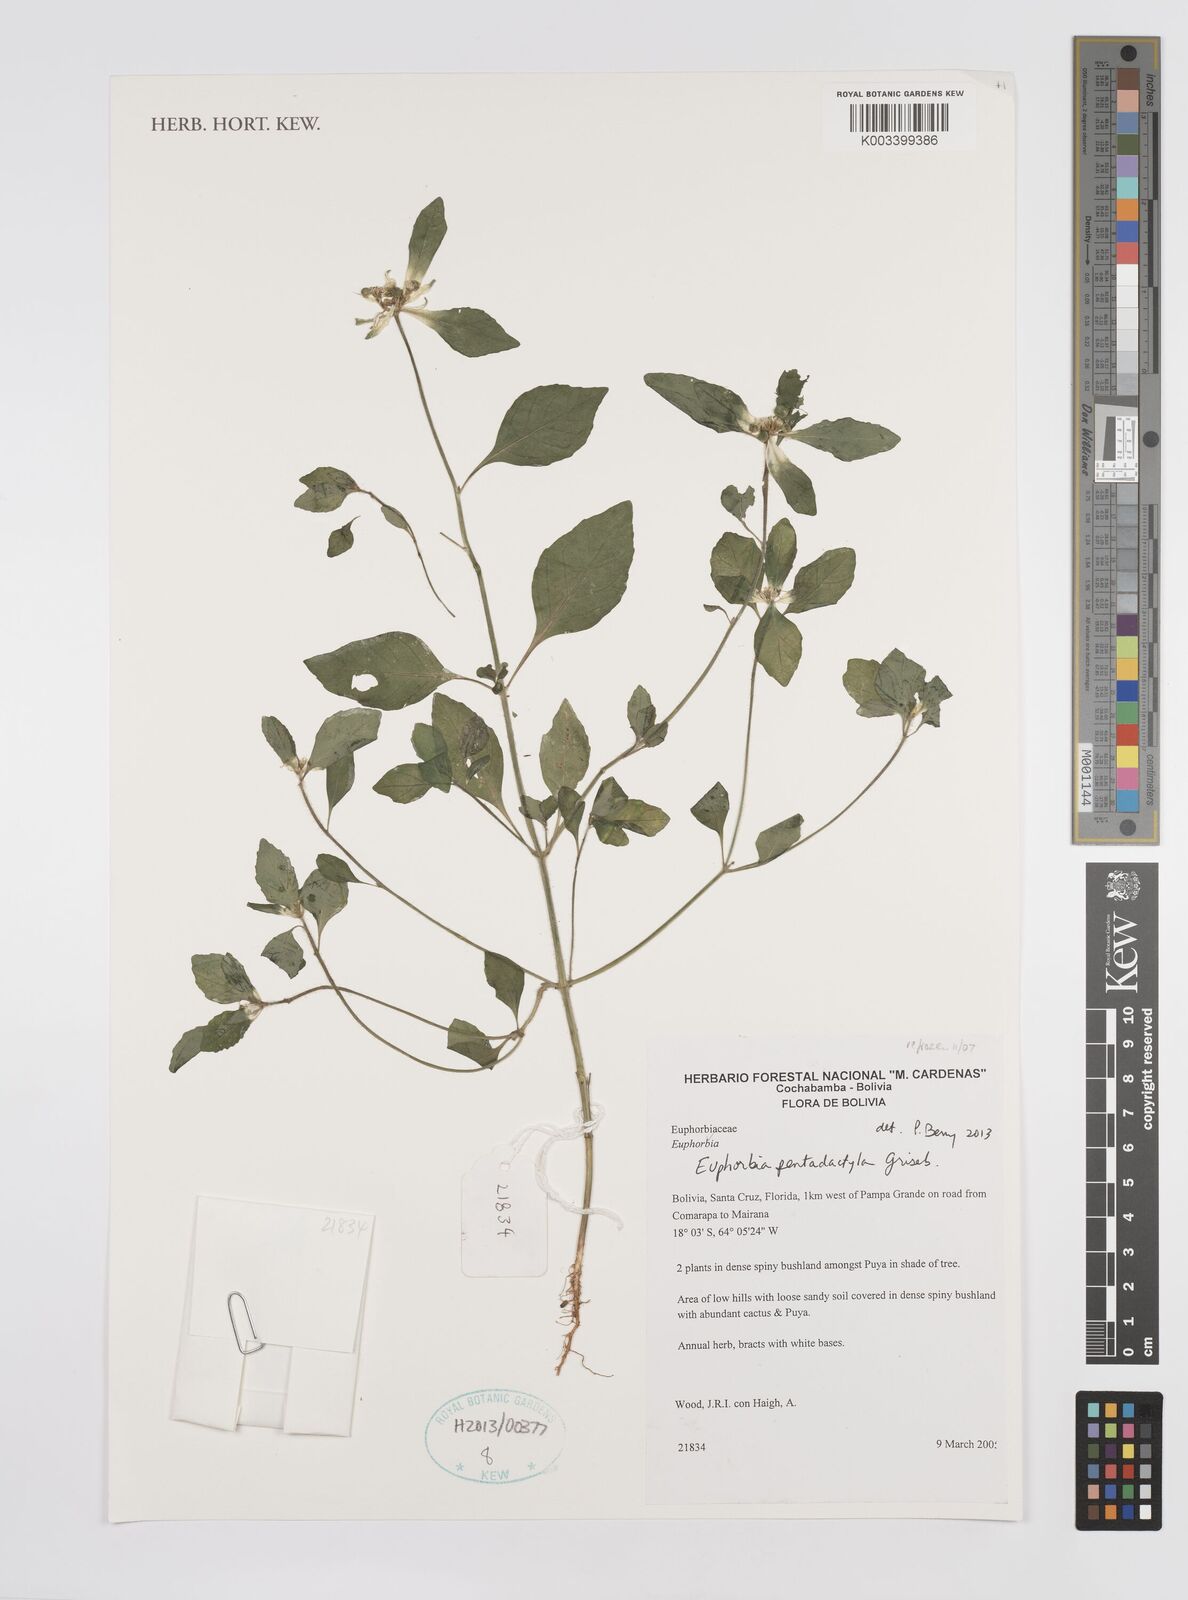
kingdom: Plantae
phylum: Tracheophyta
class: Magnoliopsida
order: Malpighiales
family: Euphorbiaceae
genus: Euphorbia
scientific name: Euphorbia pentadactyla
